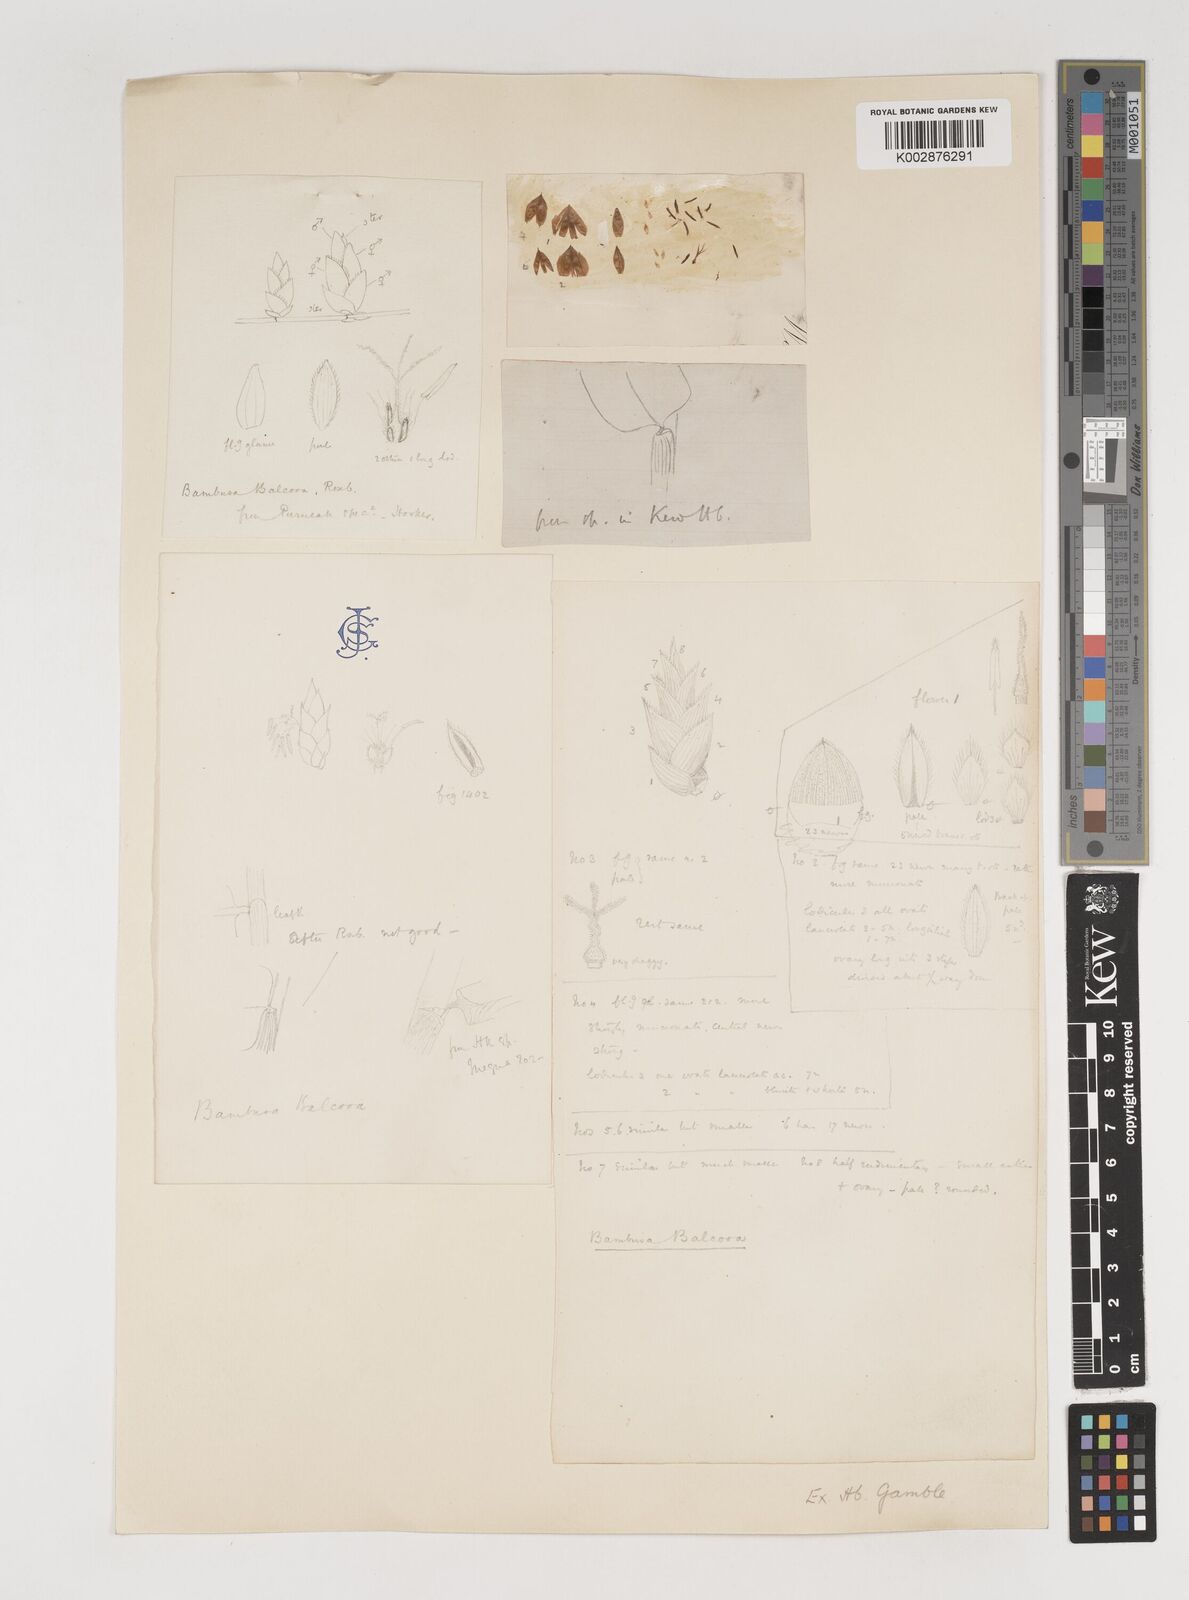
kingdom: Plantae
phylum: Tracheophyta
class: Liliopsida
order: Poales
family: Poaceae
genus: Bambusa
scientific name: Bambusa balcooa
